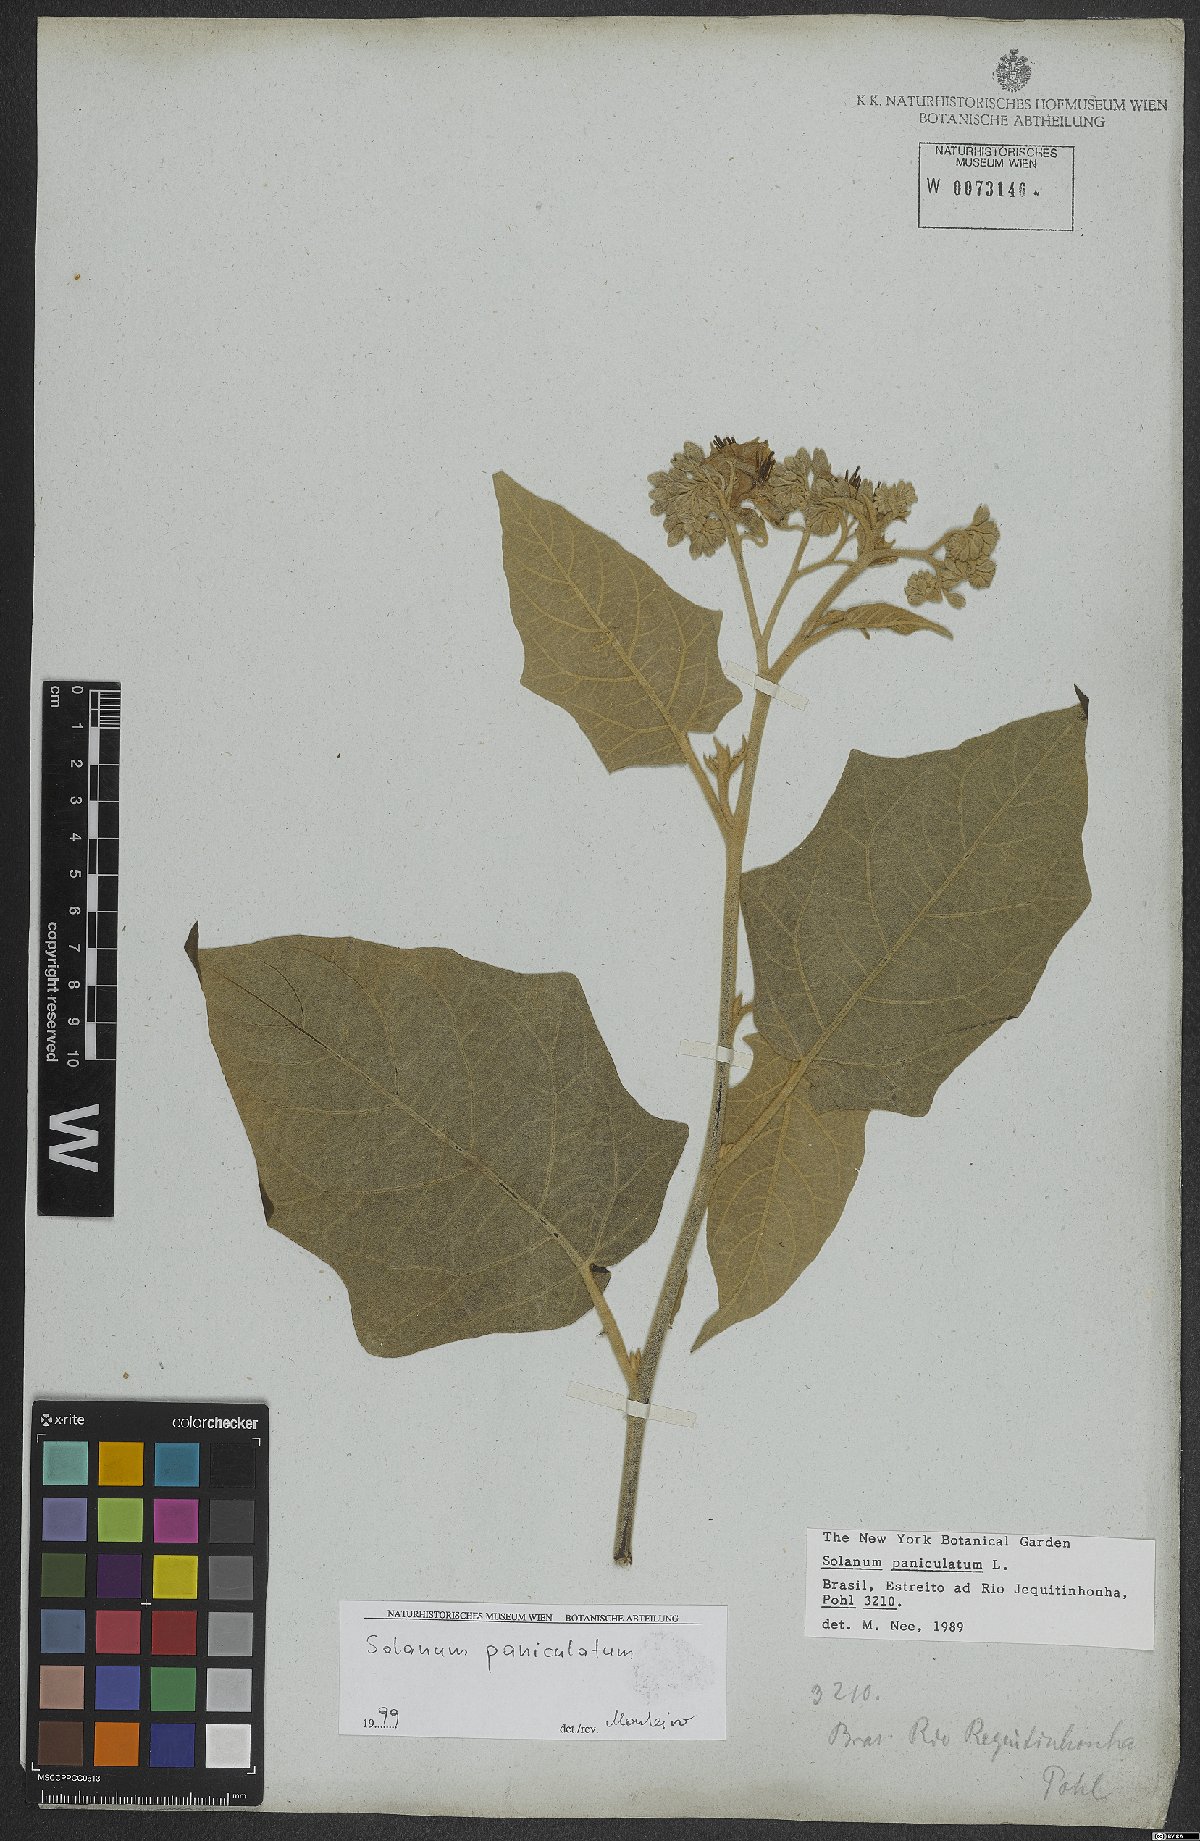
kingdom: Plantae
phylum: Tracheophyta
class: Magnoliopsida
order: Solanales
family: Solanaceae
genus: Solanum
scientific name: Solanum paniculatum
